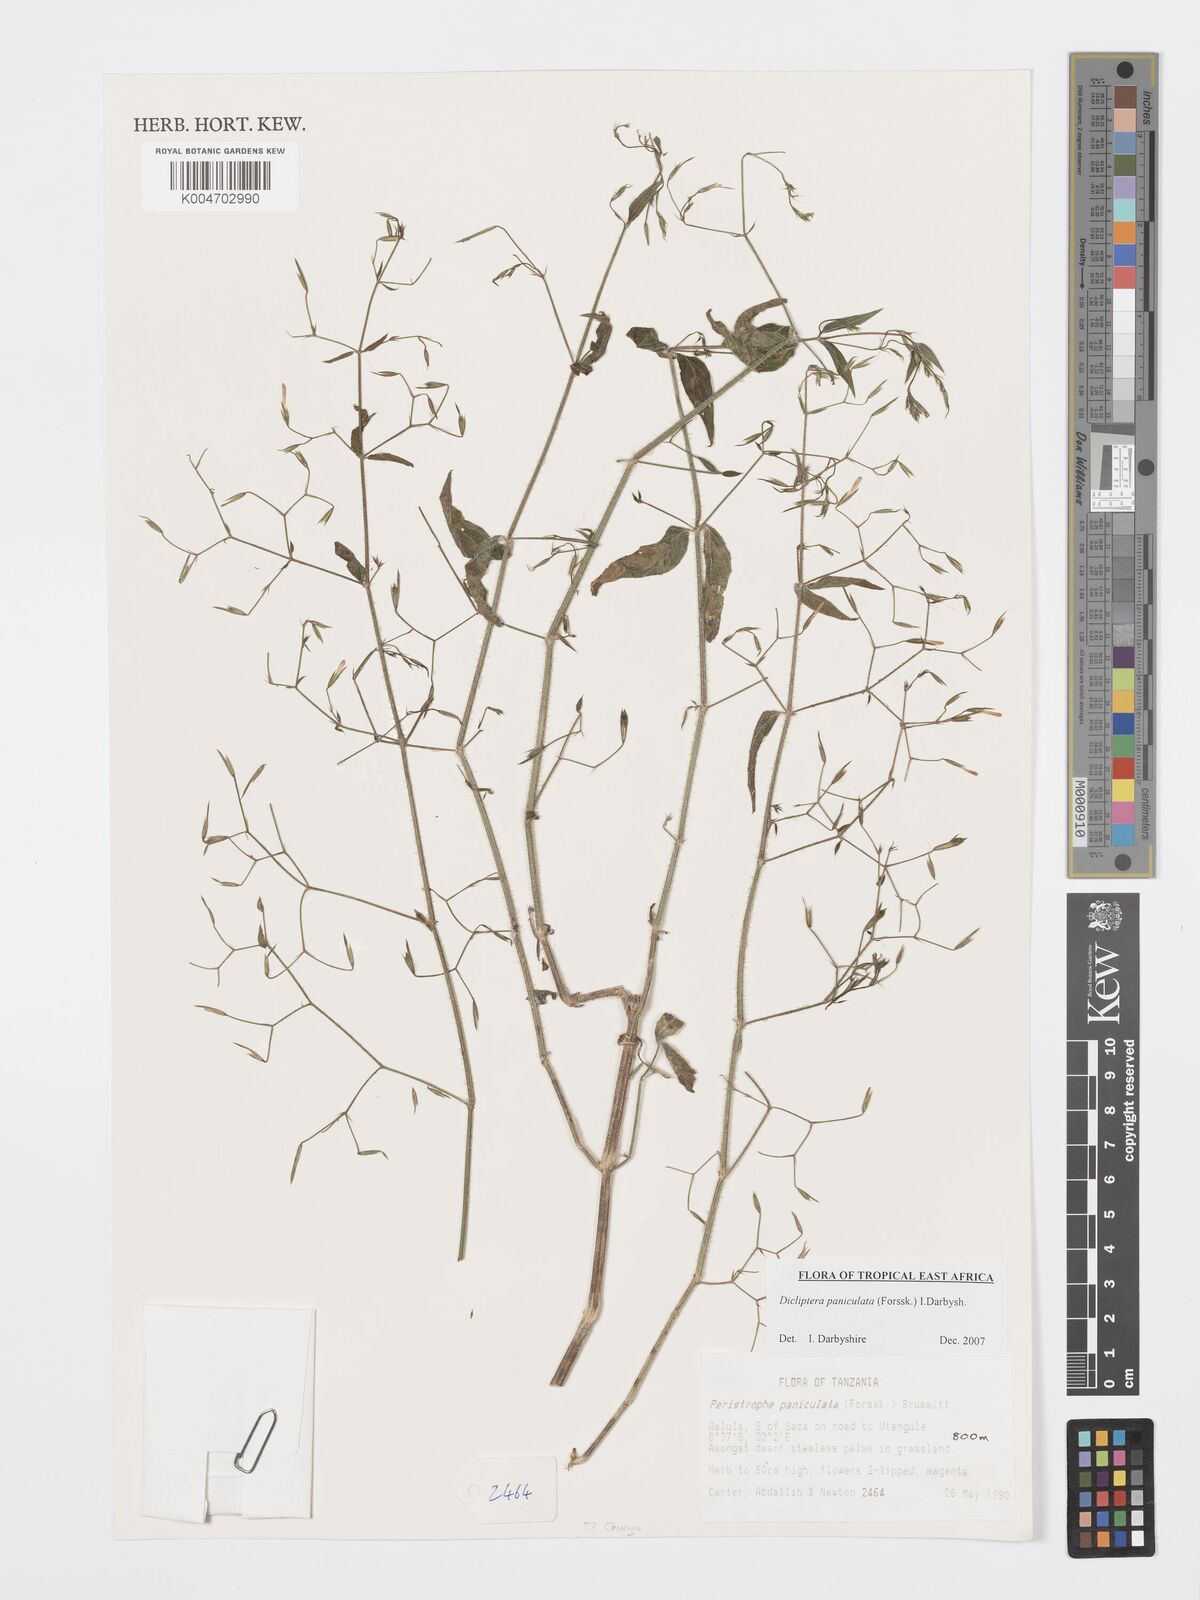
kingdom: Plantae
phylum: Tracheophyta
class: Magnoliopsida
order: Lamiales
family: Acanthaceae
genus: Dicliptera
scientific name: Dicliptera paniculata
